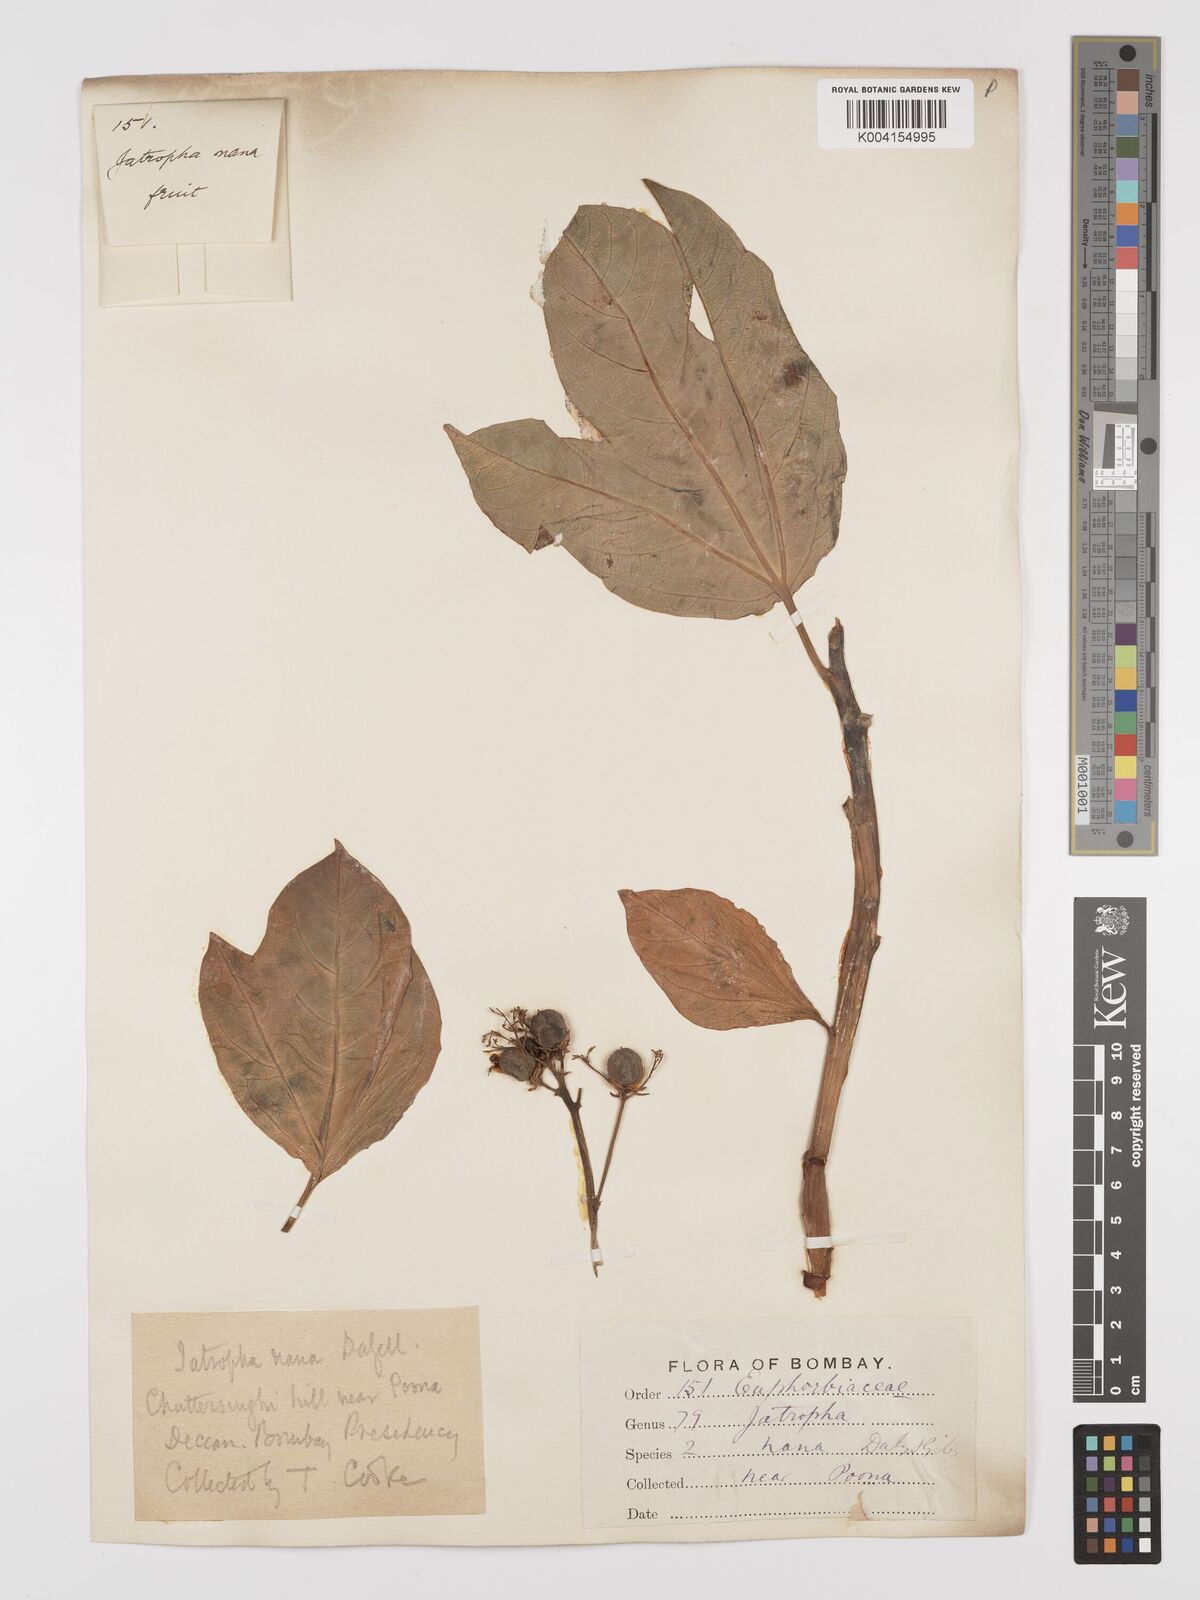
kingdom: Plantae
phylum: Tracheophyta
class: Magnoliopsida
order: Malpighiales
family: Euphorbiaceae
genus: Jatropha
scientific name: Jatropha nana
